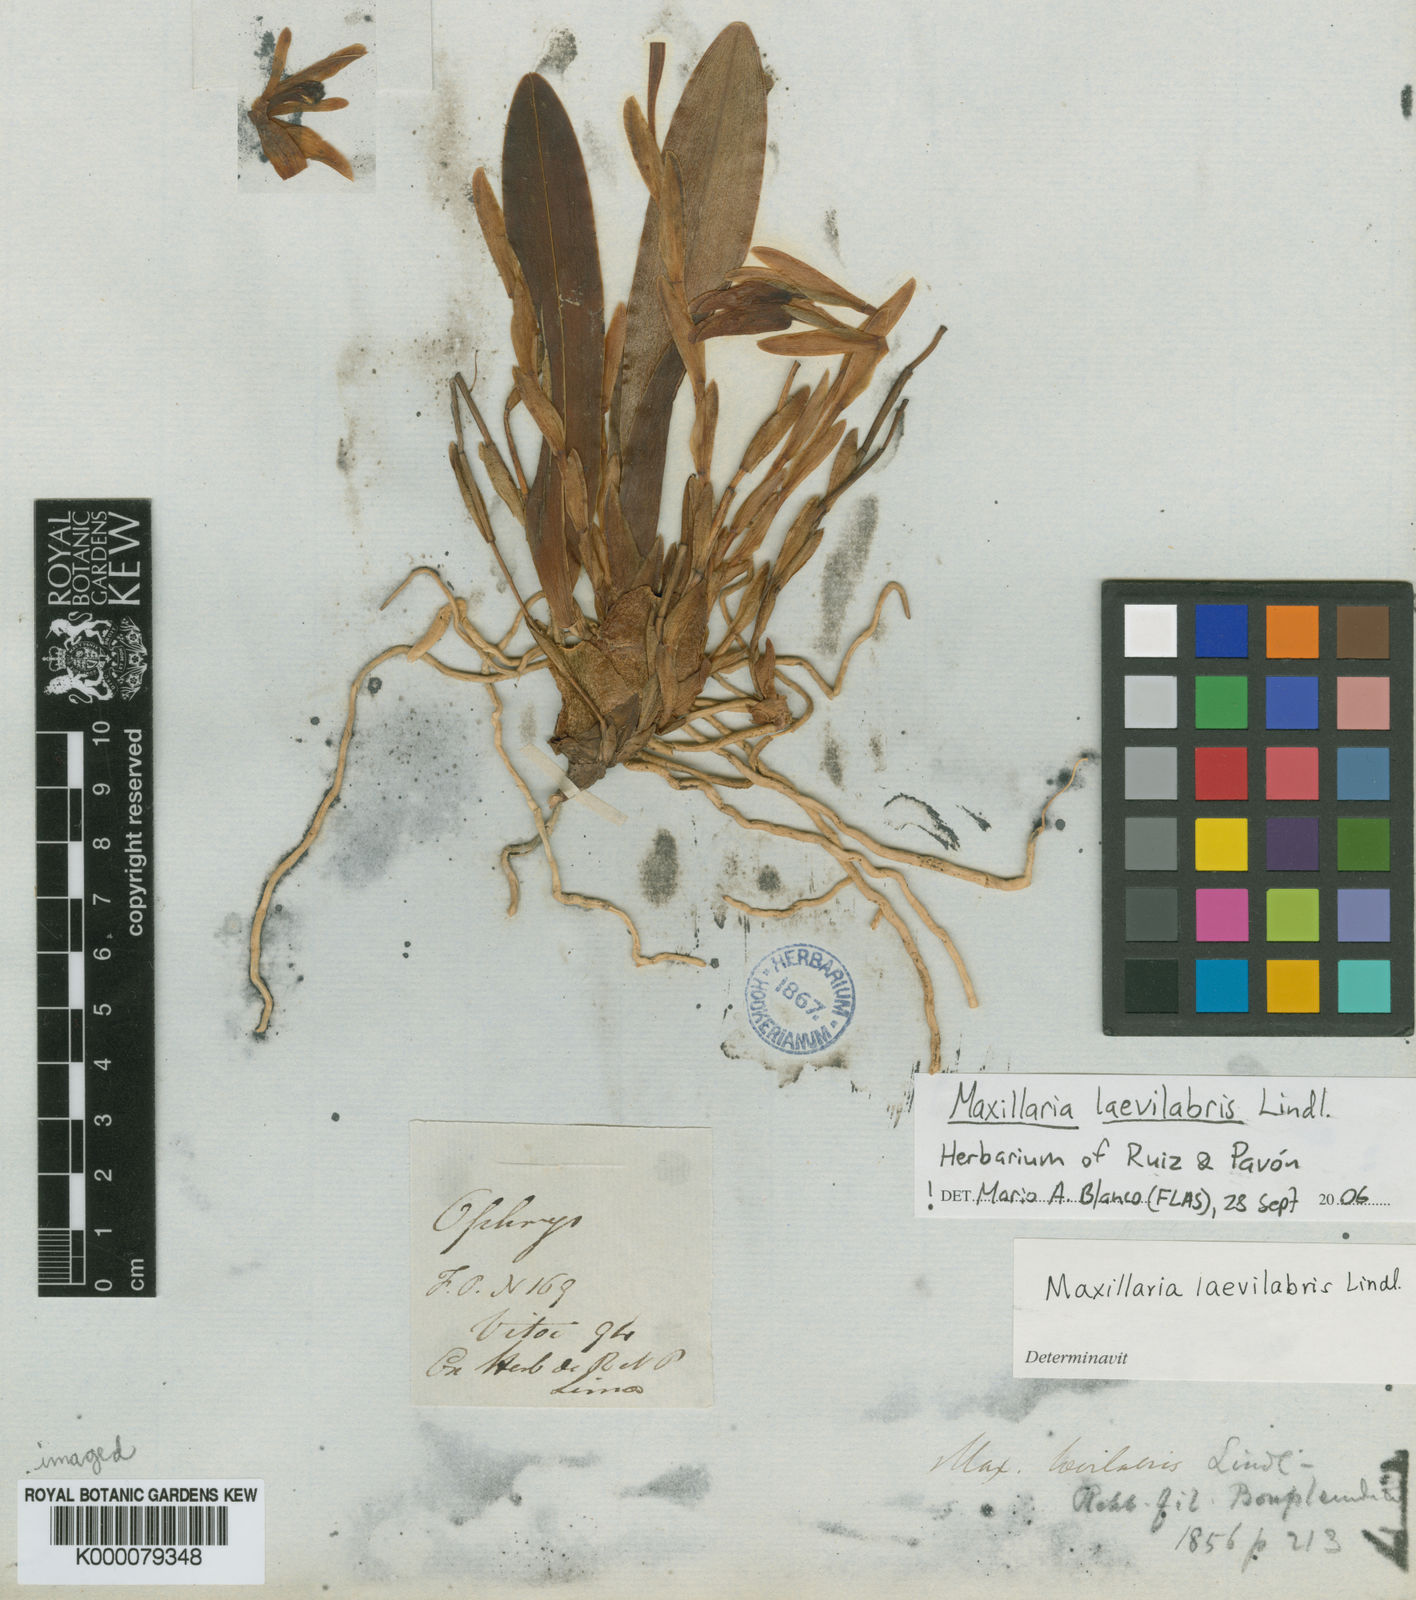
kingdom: Plantae
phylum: Tracheophyta
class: Liliopsida
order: Asparagales
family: Orchidaceae
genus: Maxillaria
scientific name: Maxillaria uniflora
